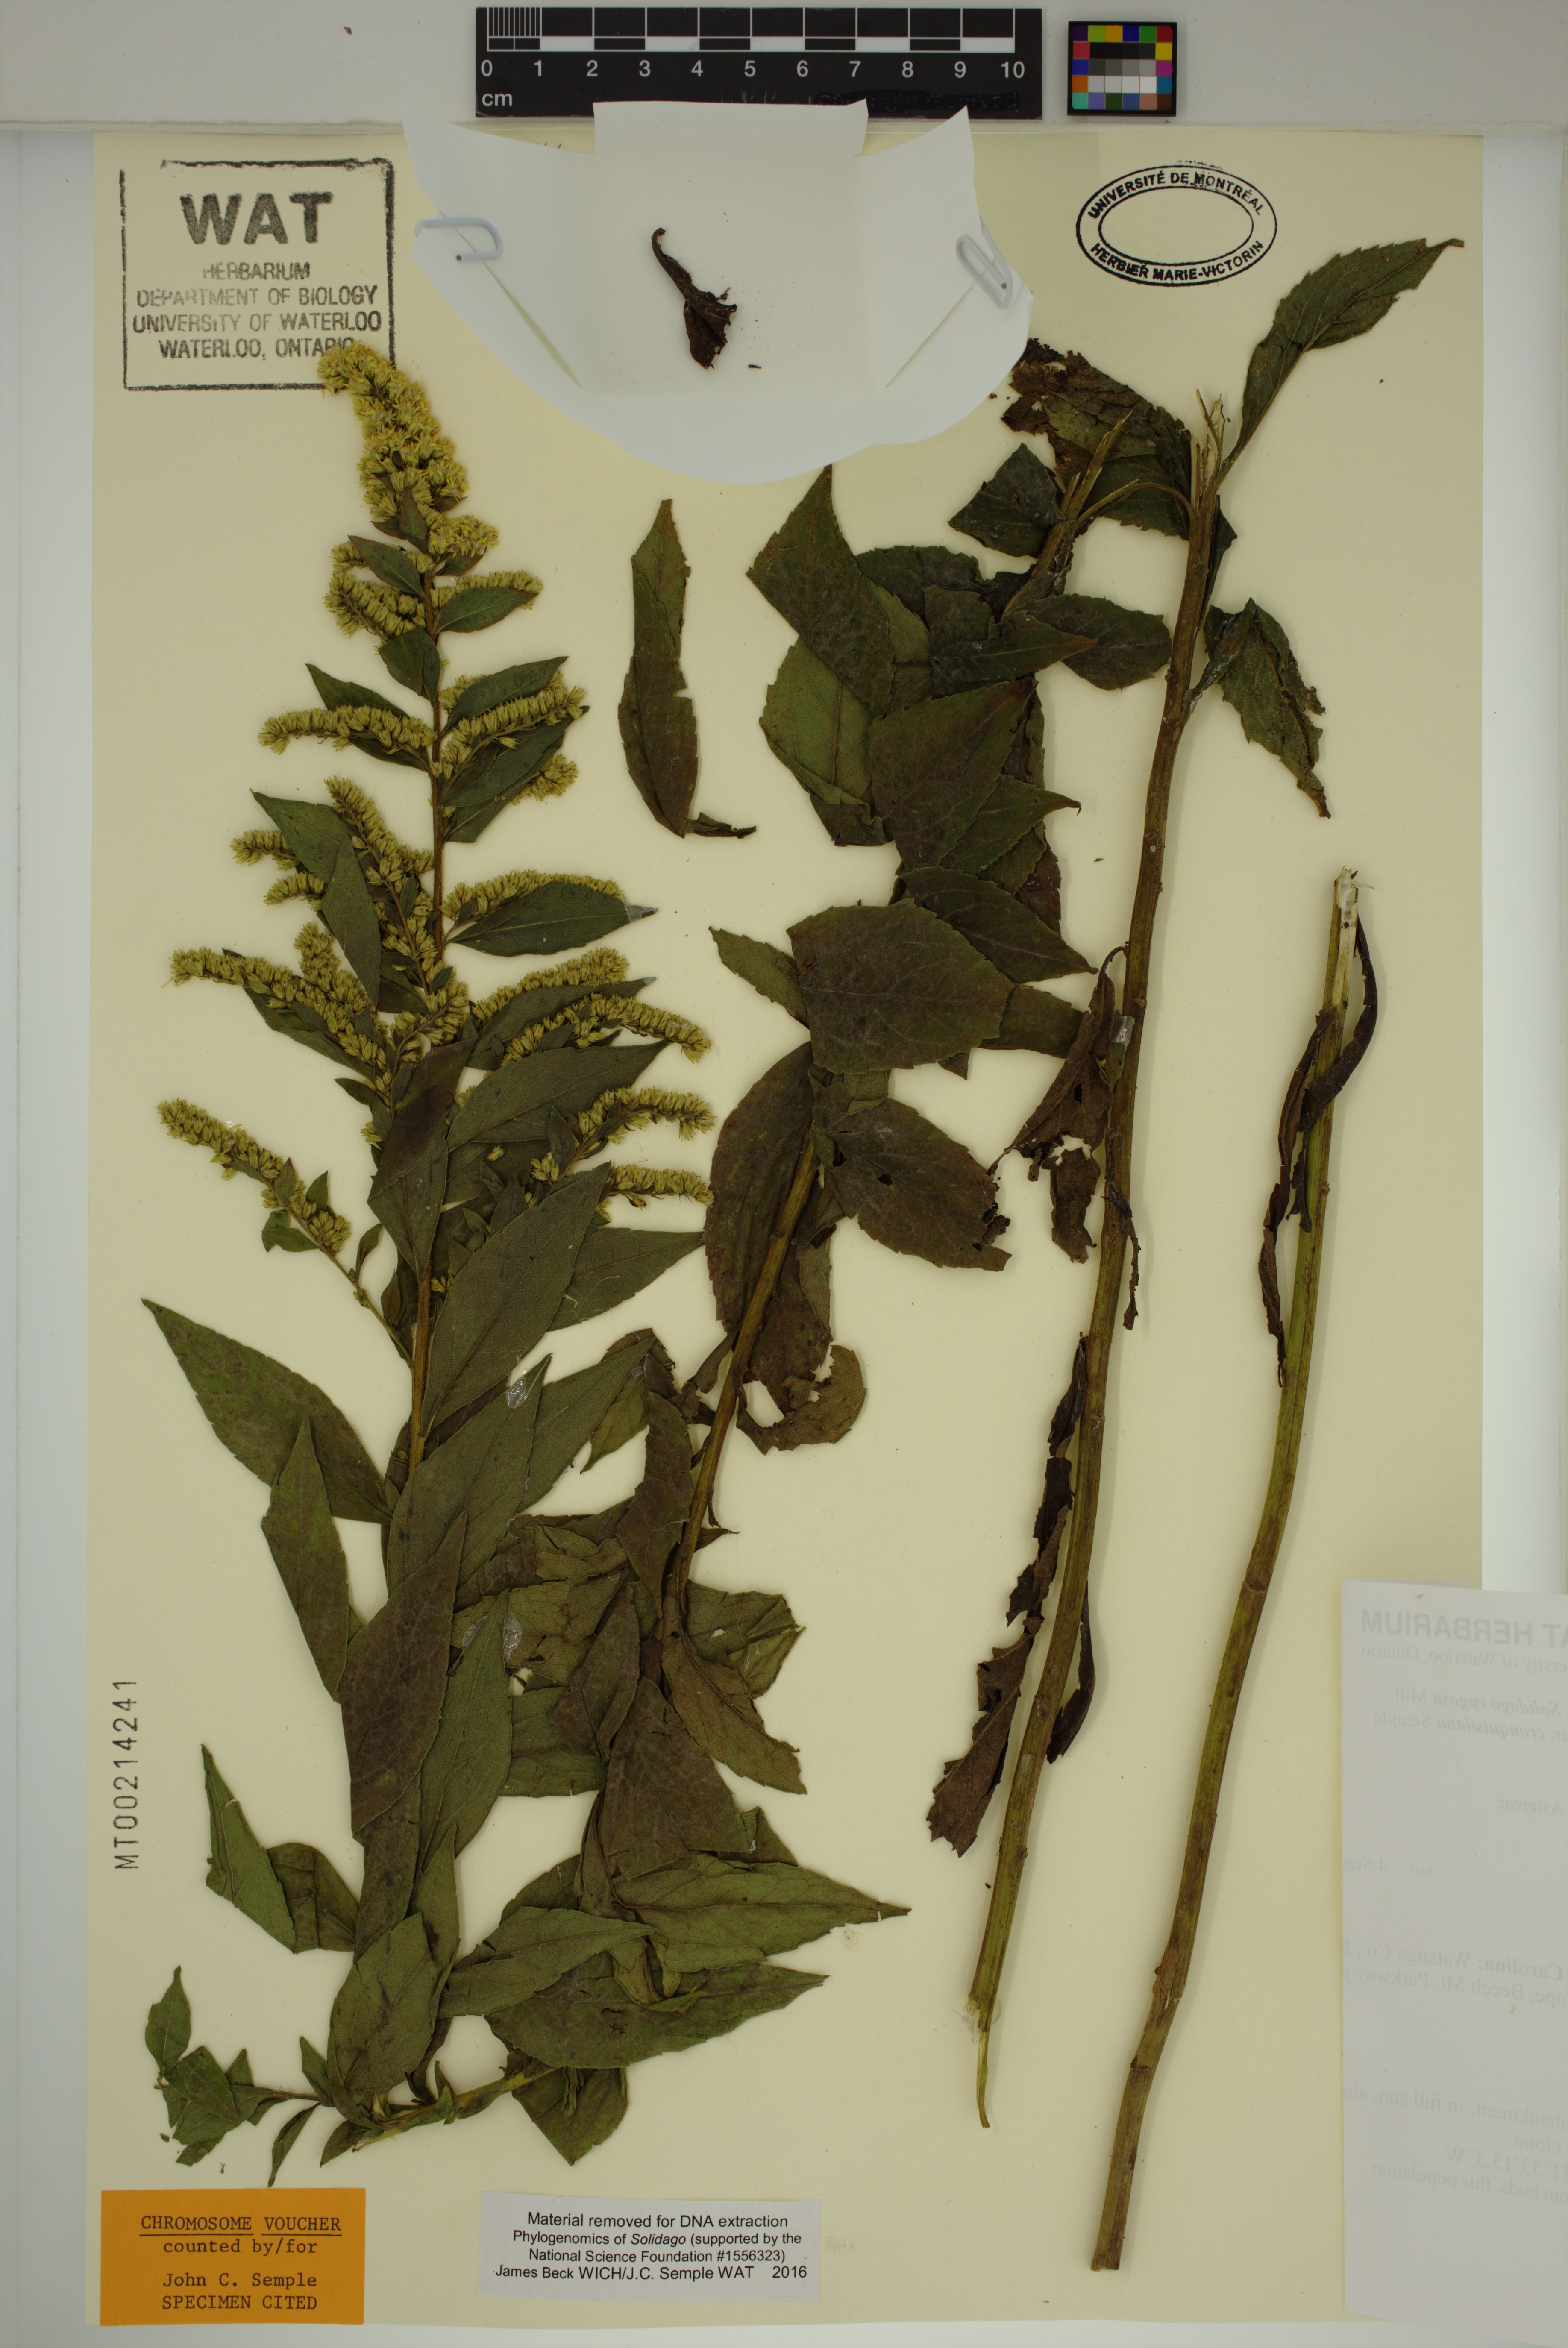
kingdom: Plantae
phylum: Tracheophyta
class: Magnoliopsida
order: Asterales
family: Asteraceae
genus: Solidago
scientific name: Solidago rugosa
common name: Rough-stemmed goldenrod
